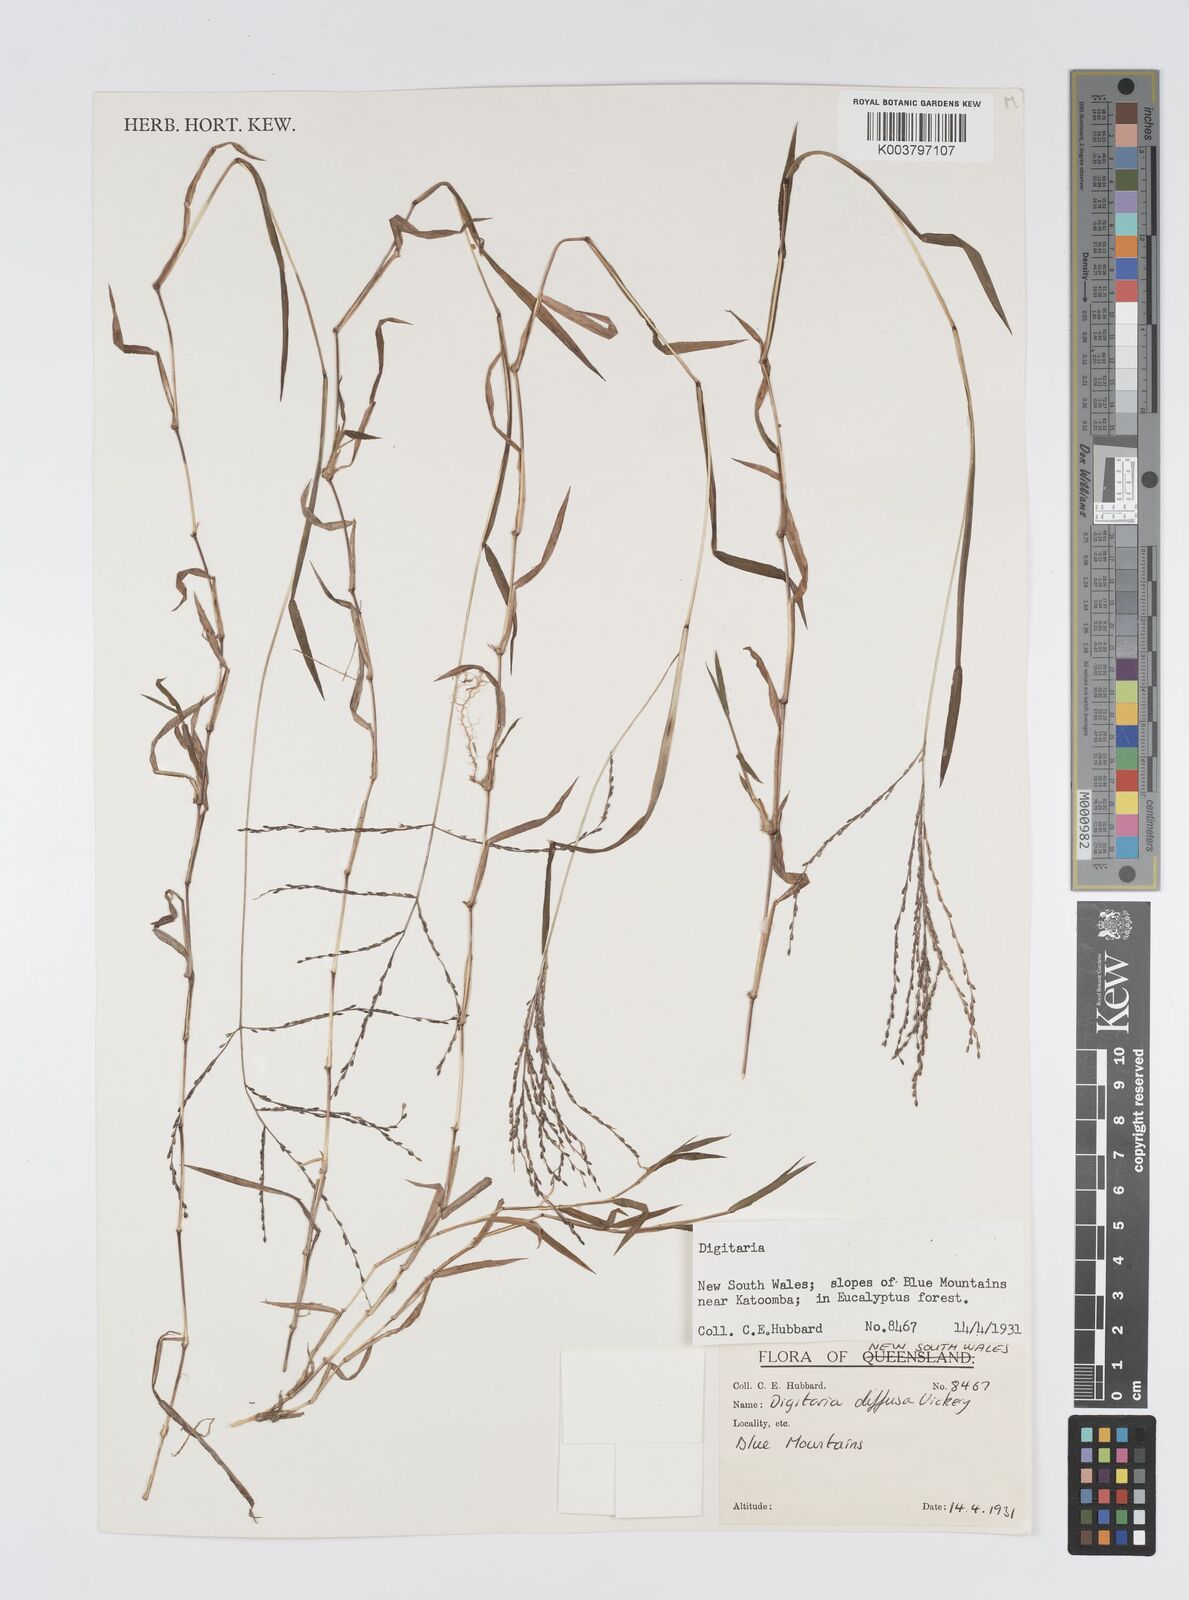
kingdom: Plantae
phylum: Tracheophyta
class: Liliopsida
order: Poales
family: Poaceae
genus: Digitaria
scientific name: Digitaria diffusa
